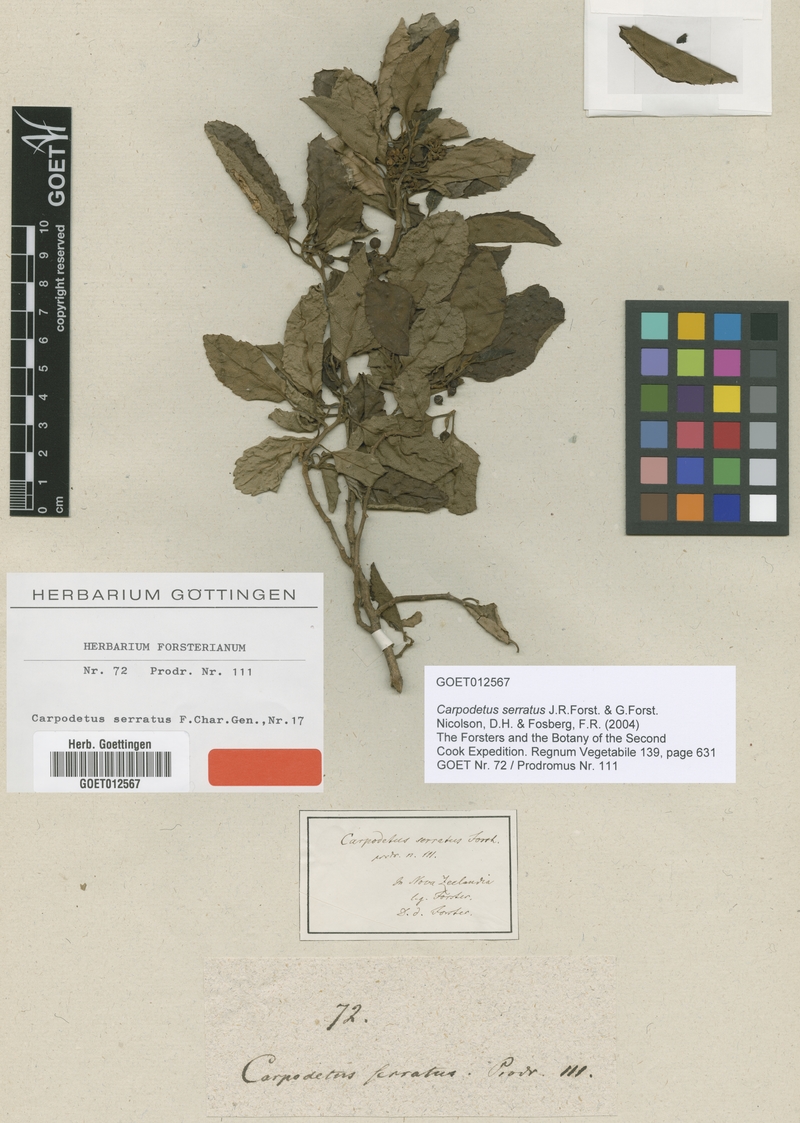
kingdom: Plantae
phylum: Tracheophyta
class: Magnoliopsida
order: Asterales
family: Rousseaceae
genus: Carpodetus
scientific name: Carpodetus serratus
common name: White mapau
